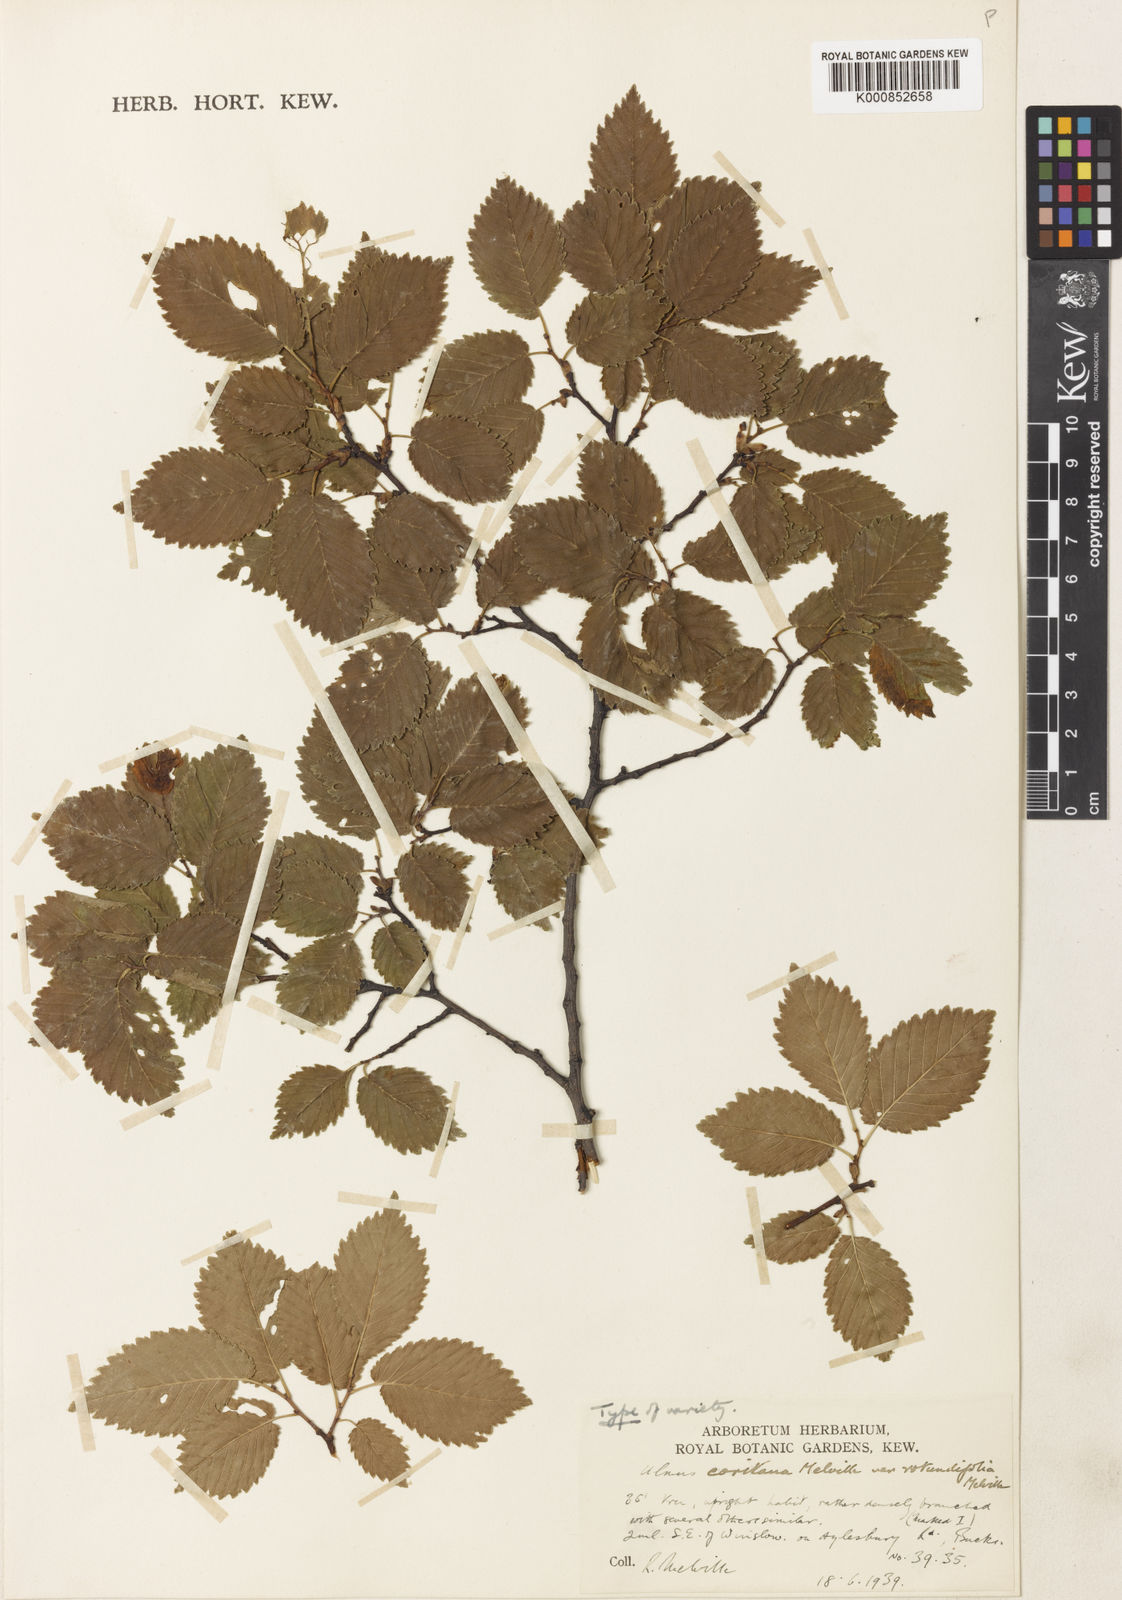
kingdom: Plantae
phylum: Tracheophyta
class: Magnoliopsida
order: Rosales
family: Ulmaceae
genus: Ulmus
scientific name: Ulmus minor
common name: Small-leaved elm
